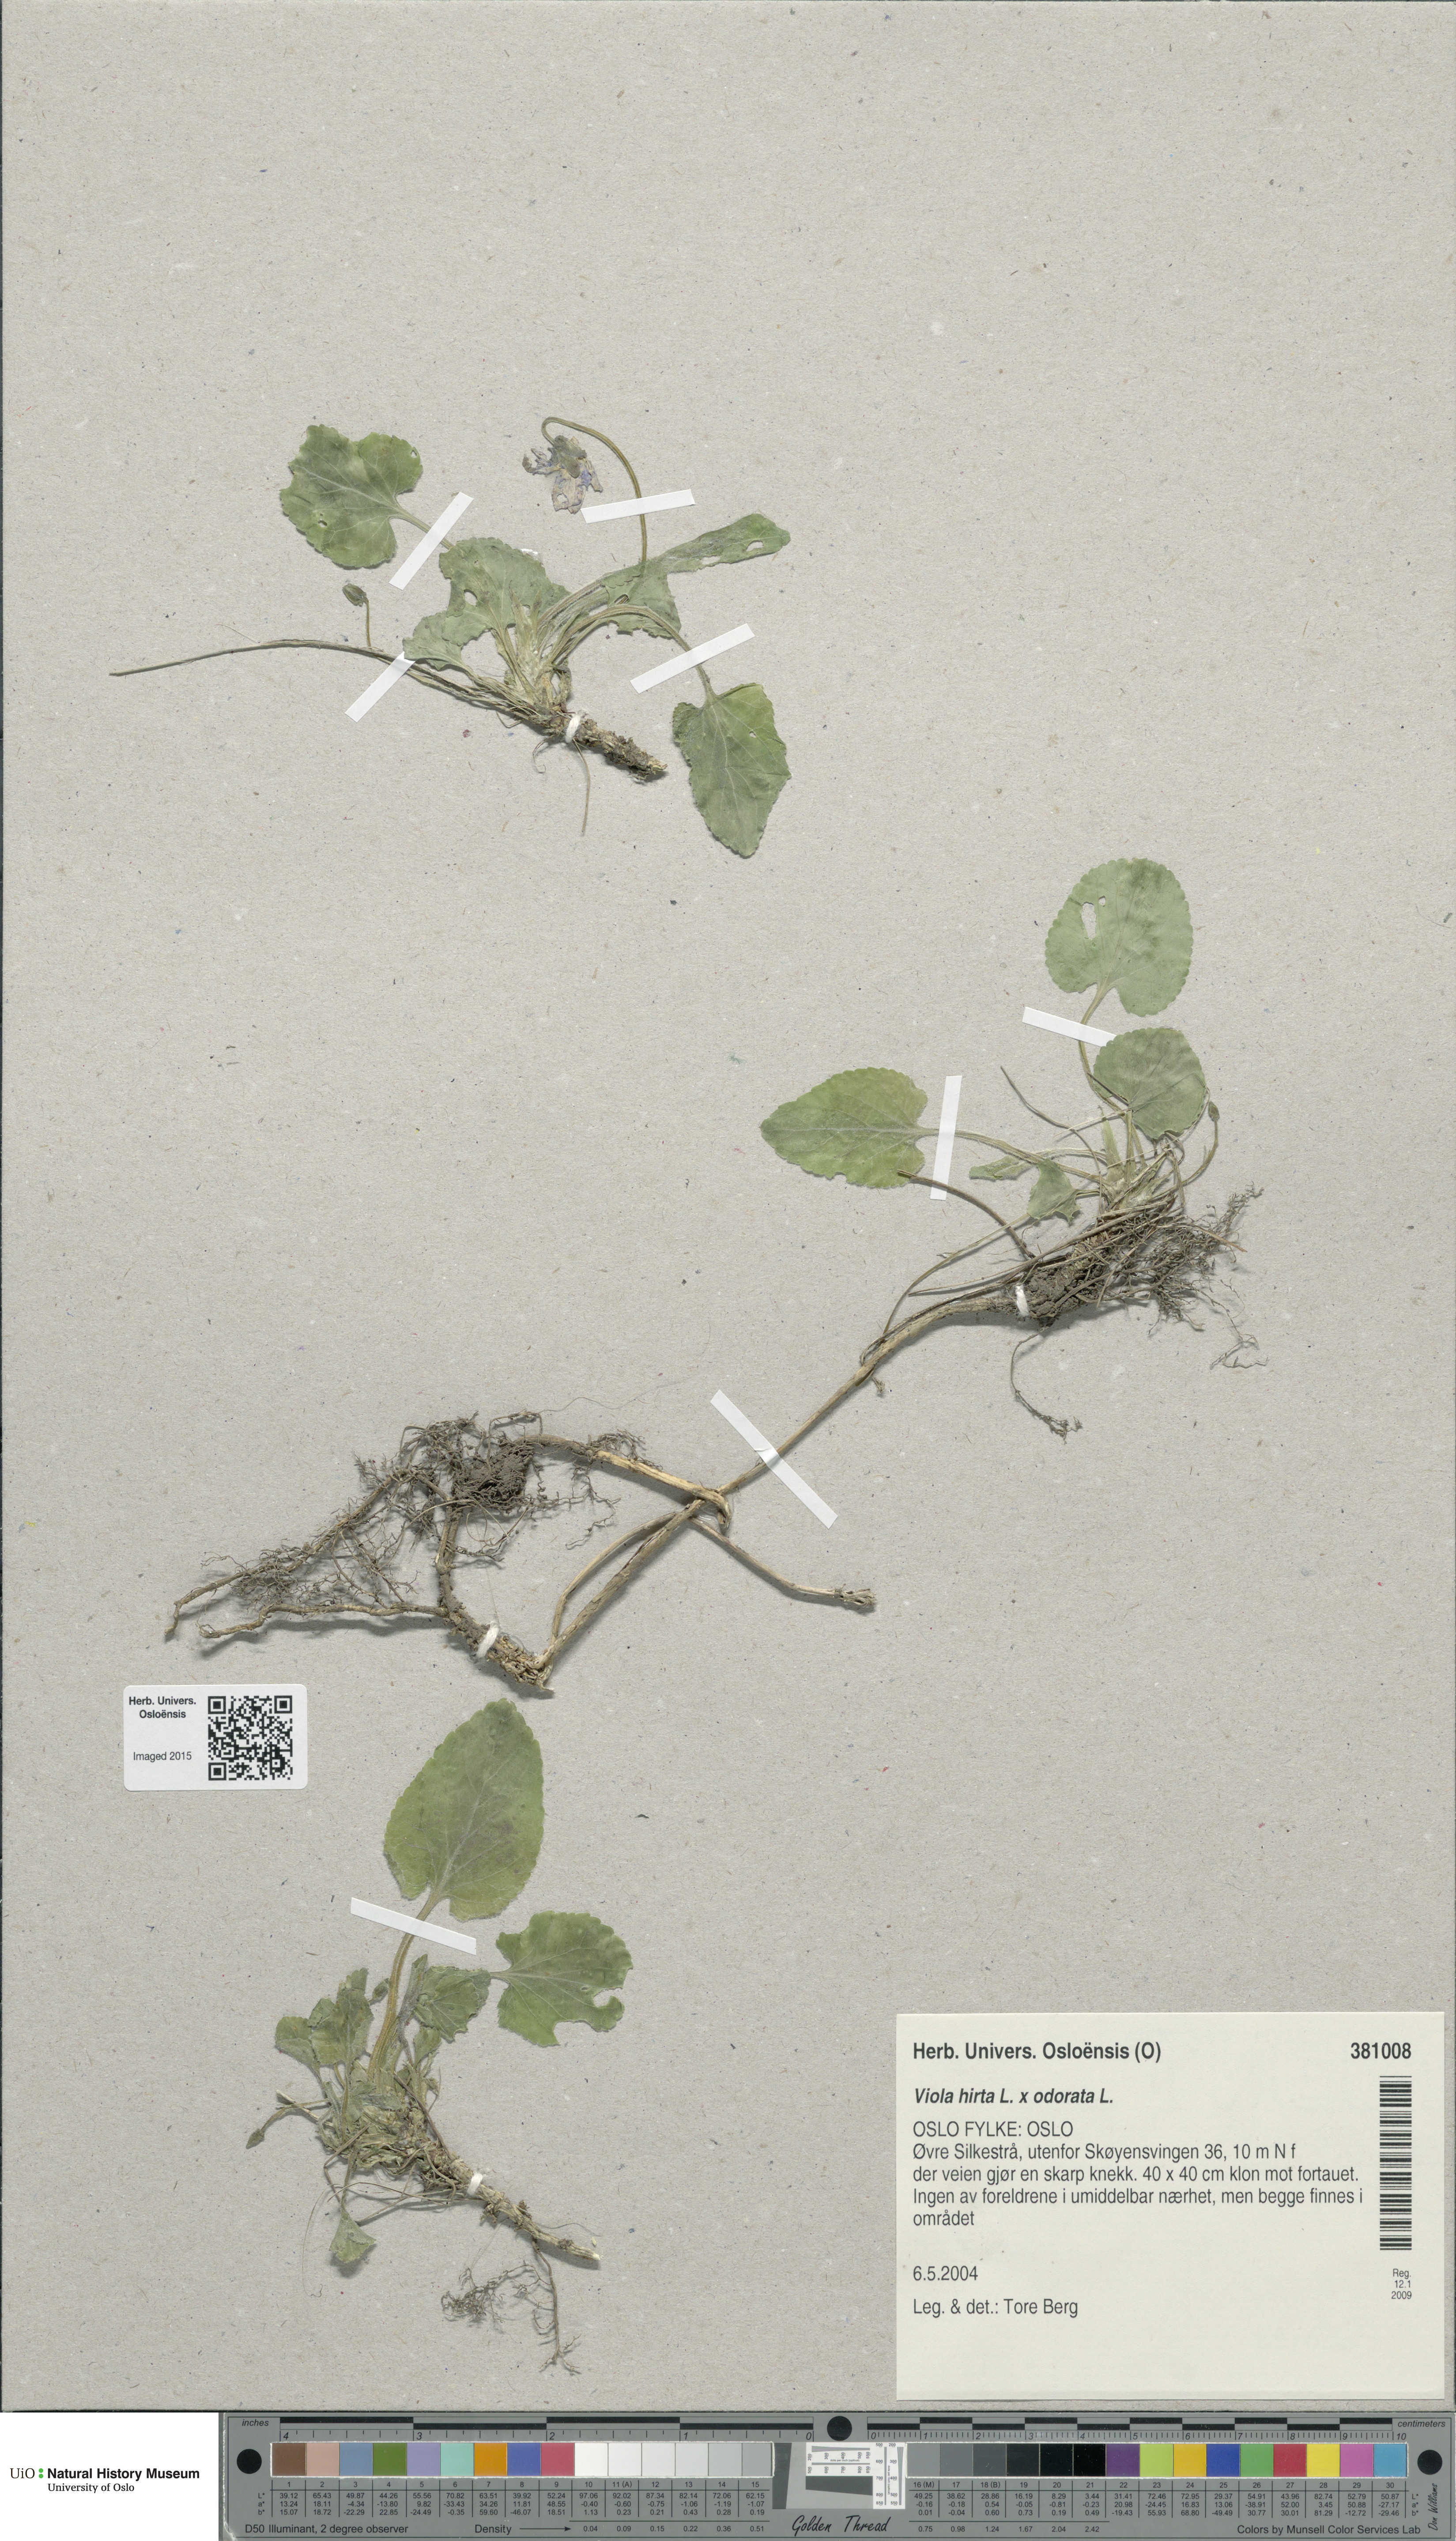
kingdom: Plantae
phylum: Tracheophyta
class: Magnoliopsida
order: Malpighiales
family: Violaceae
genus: Viola
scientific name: Viola
